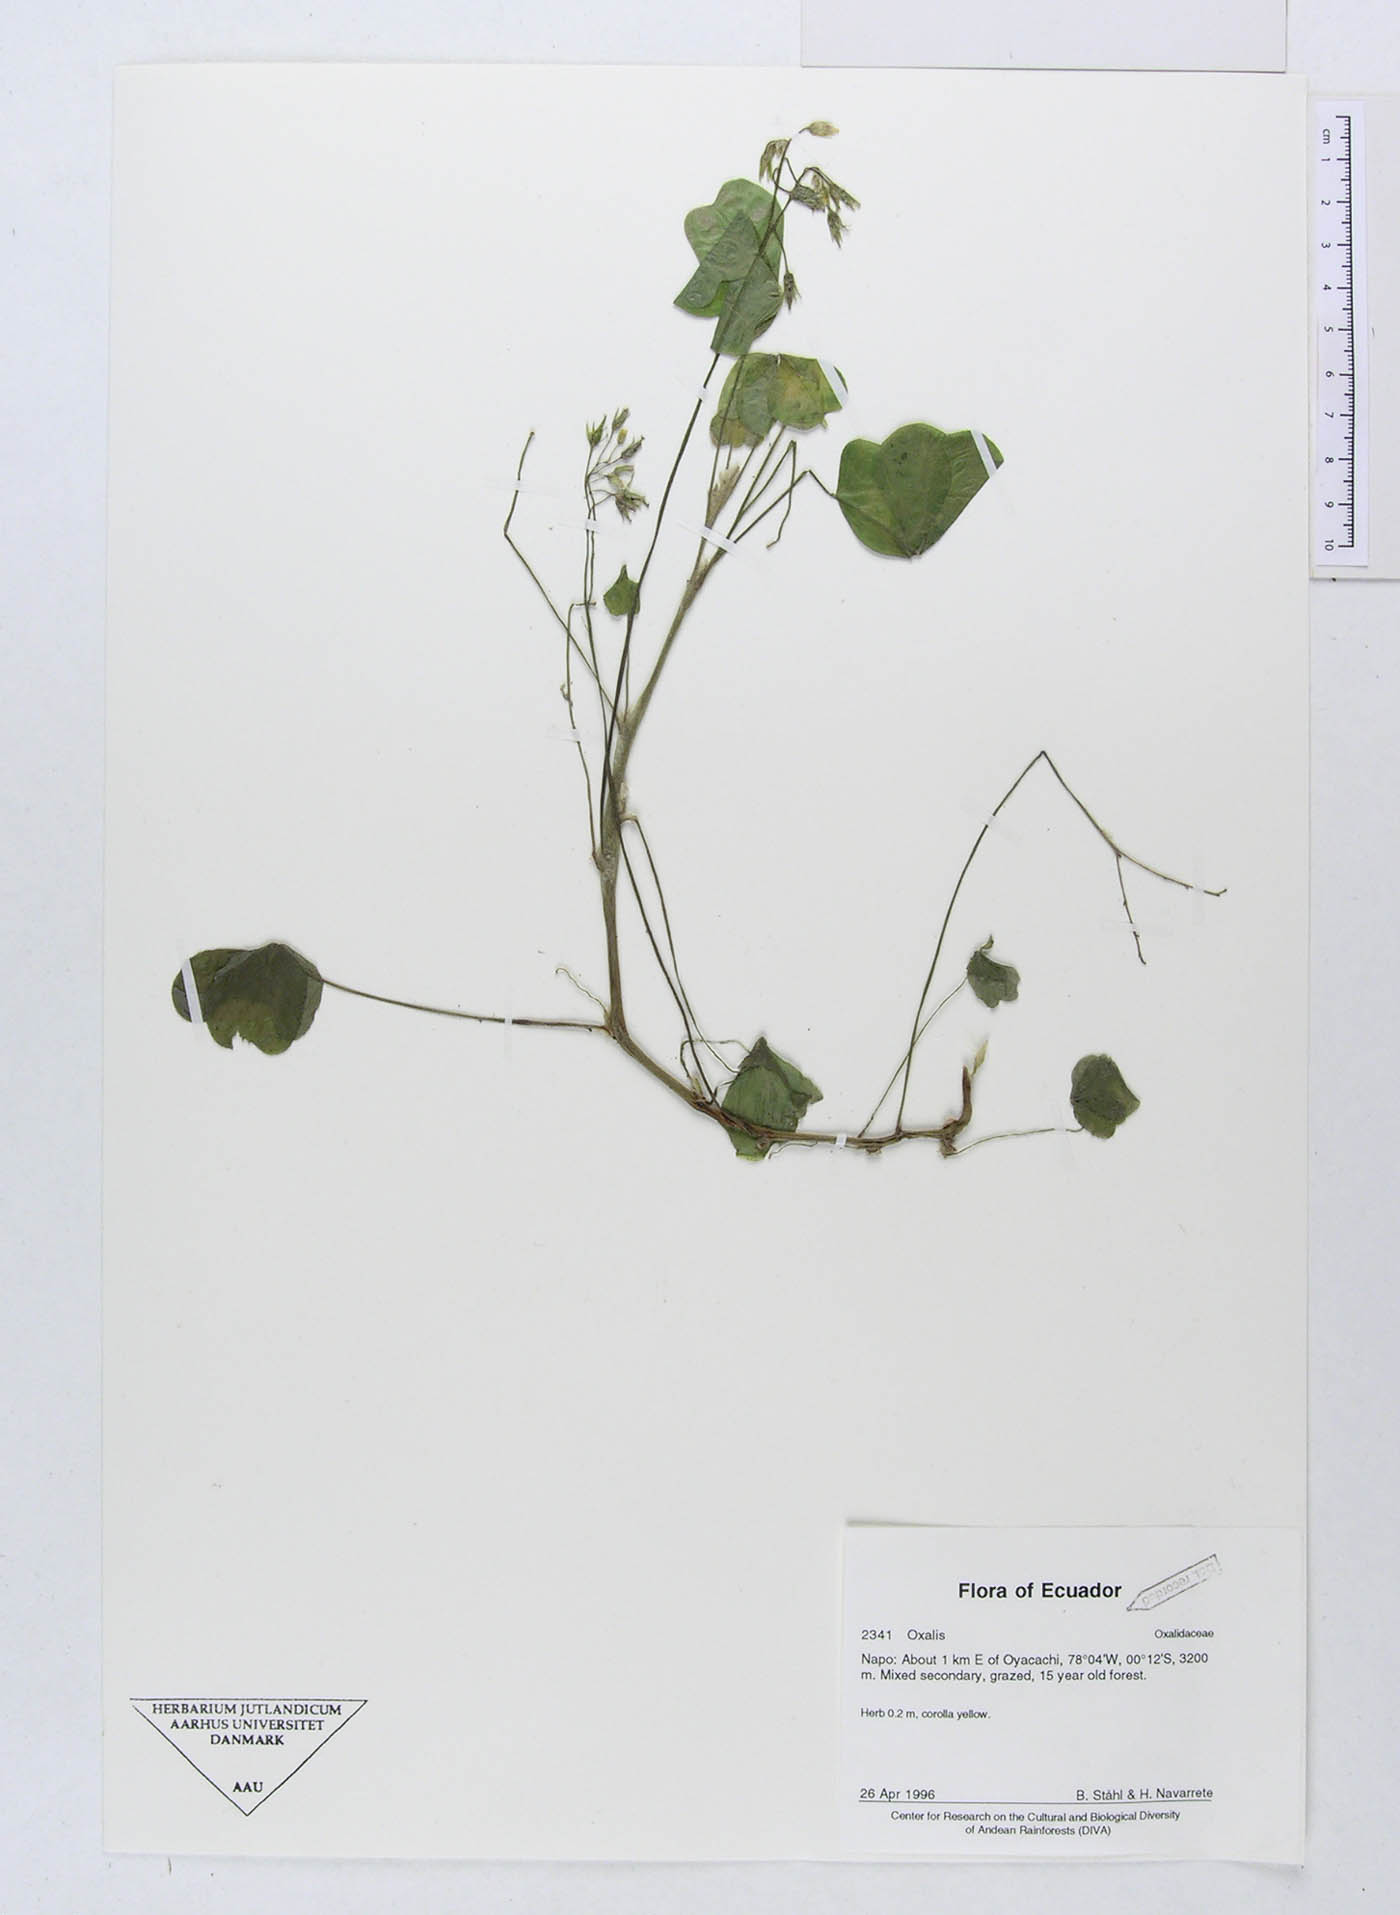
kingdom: Plantae
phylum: Tracheophyta
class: Magnoliopsida
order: Oxalidales
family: Oxalidaceae
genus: Oxalis
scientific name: Oxalis
